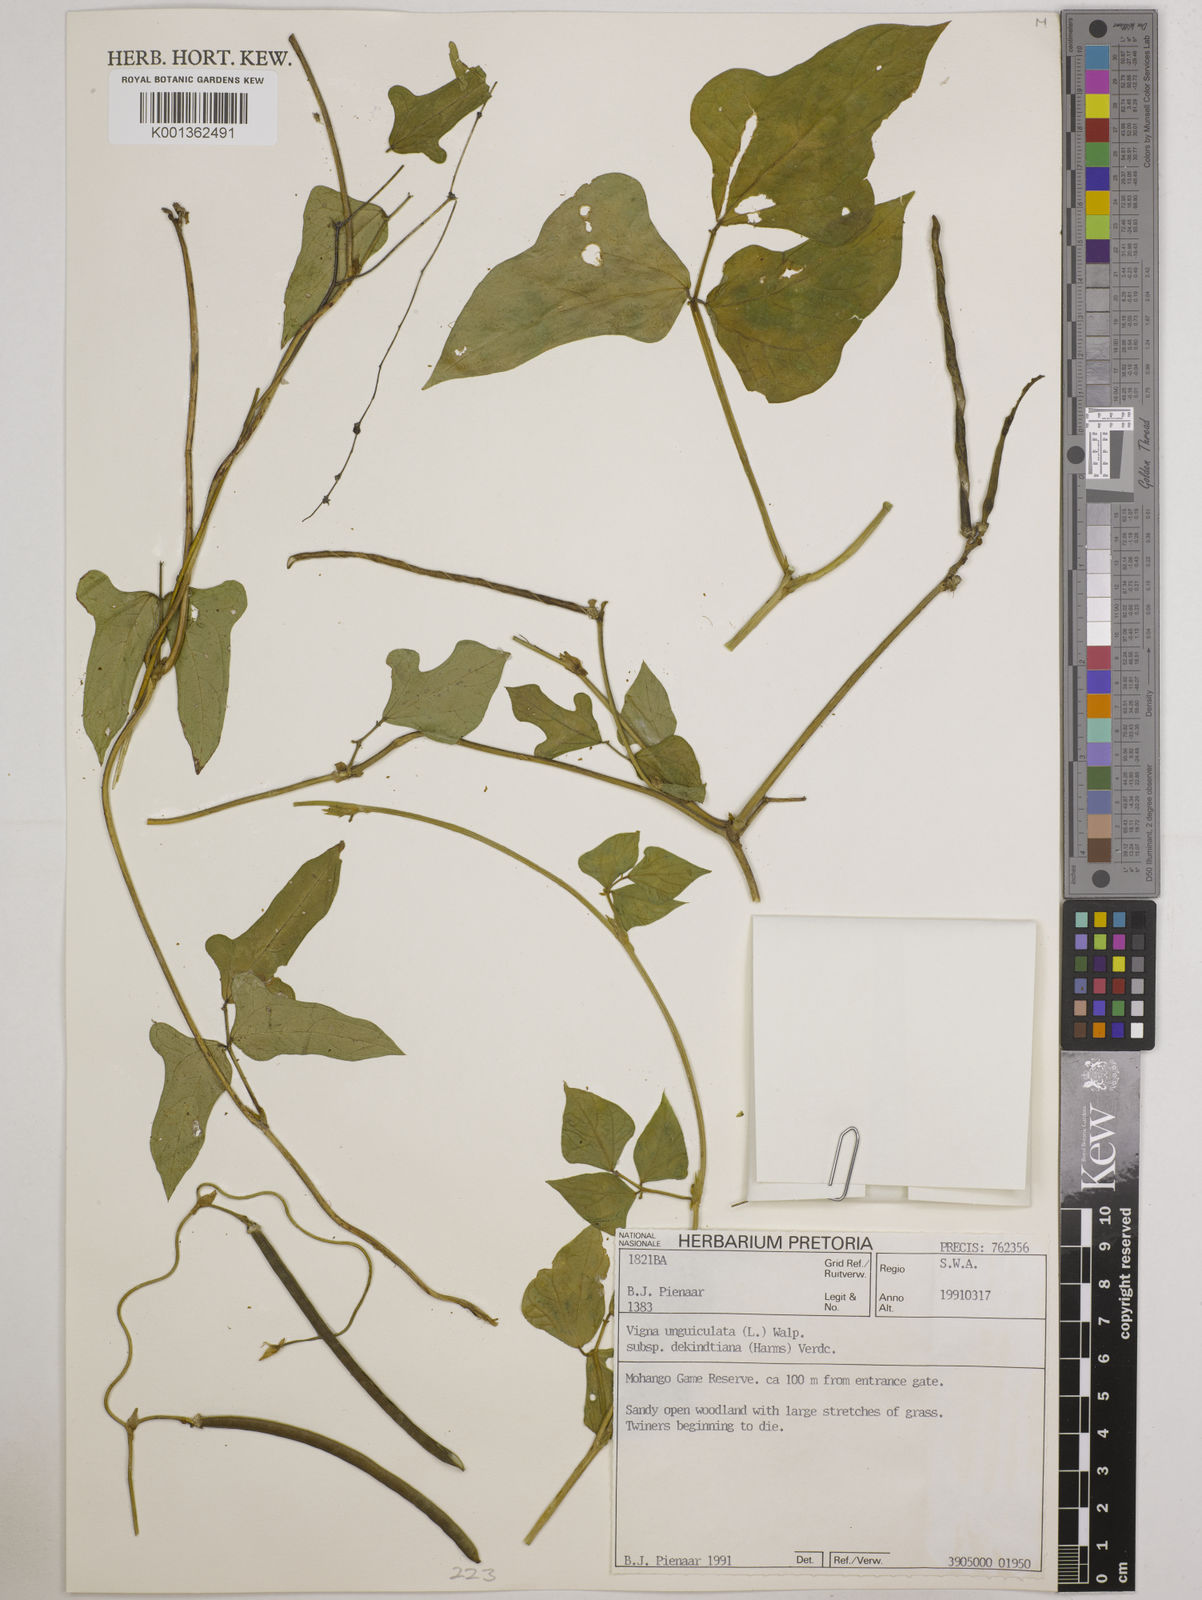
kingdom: Plantae
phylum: Tracheophyta
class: Magnoliopsida
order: Fabales
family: Fabaceae
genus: Vigna
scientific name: Vigna
